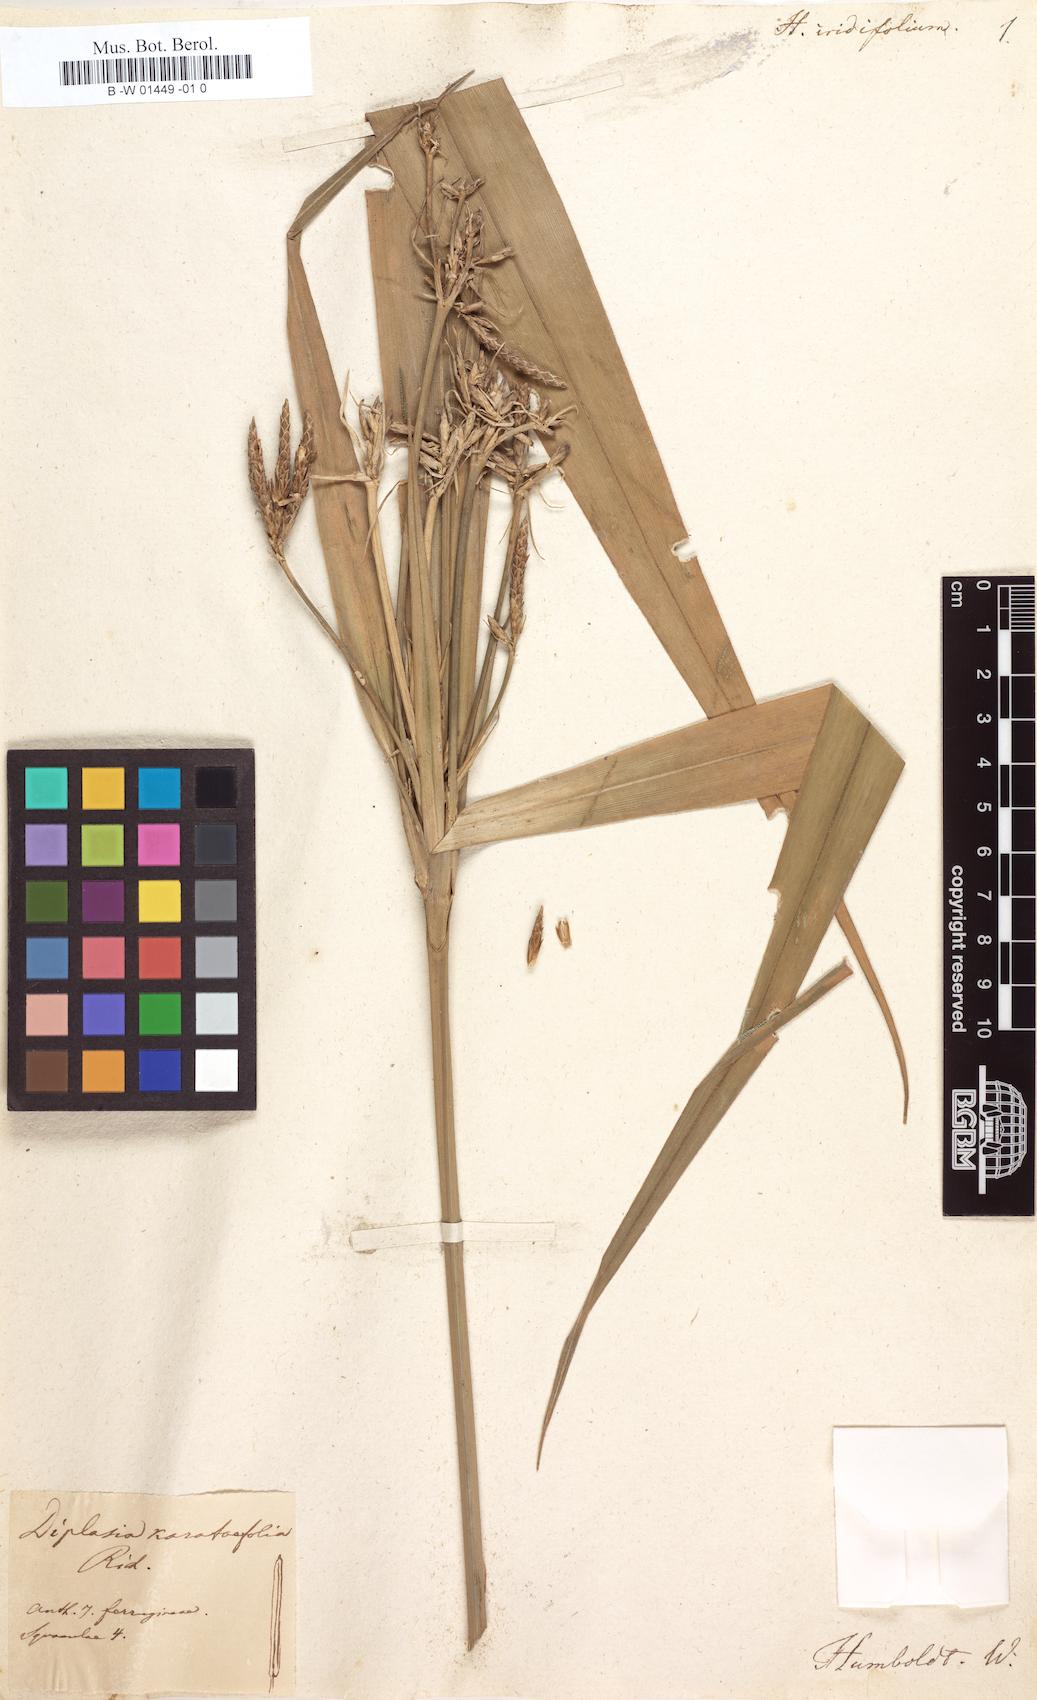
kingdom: Plantae
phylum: Tracheophyta
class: Liliopsida
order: Poales
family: Cyperaceae
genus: Diplasia
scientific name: Diplasia karatifolia
